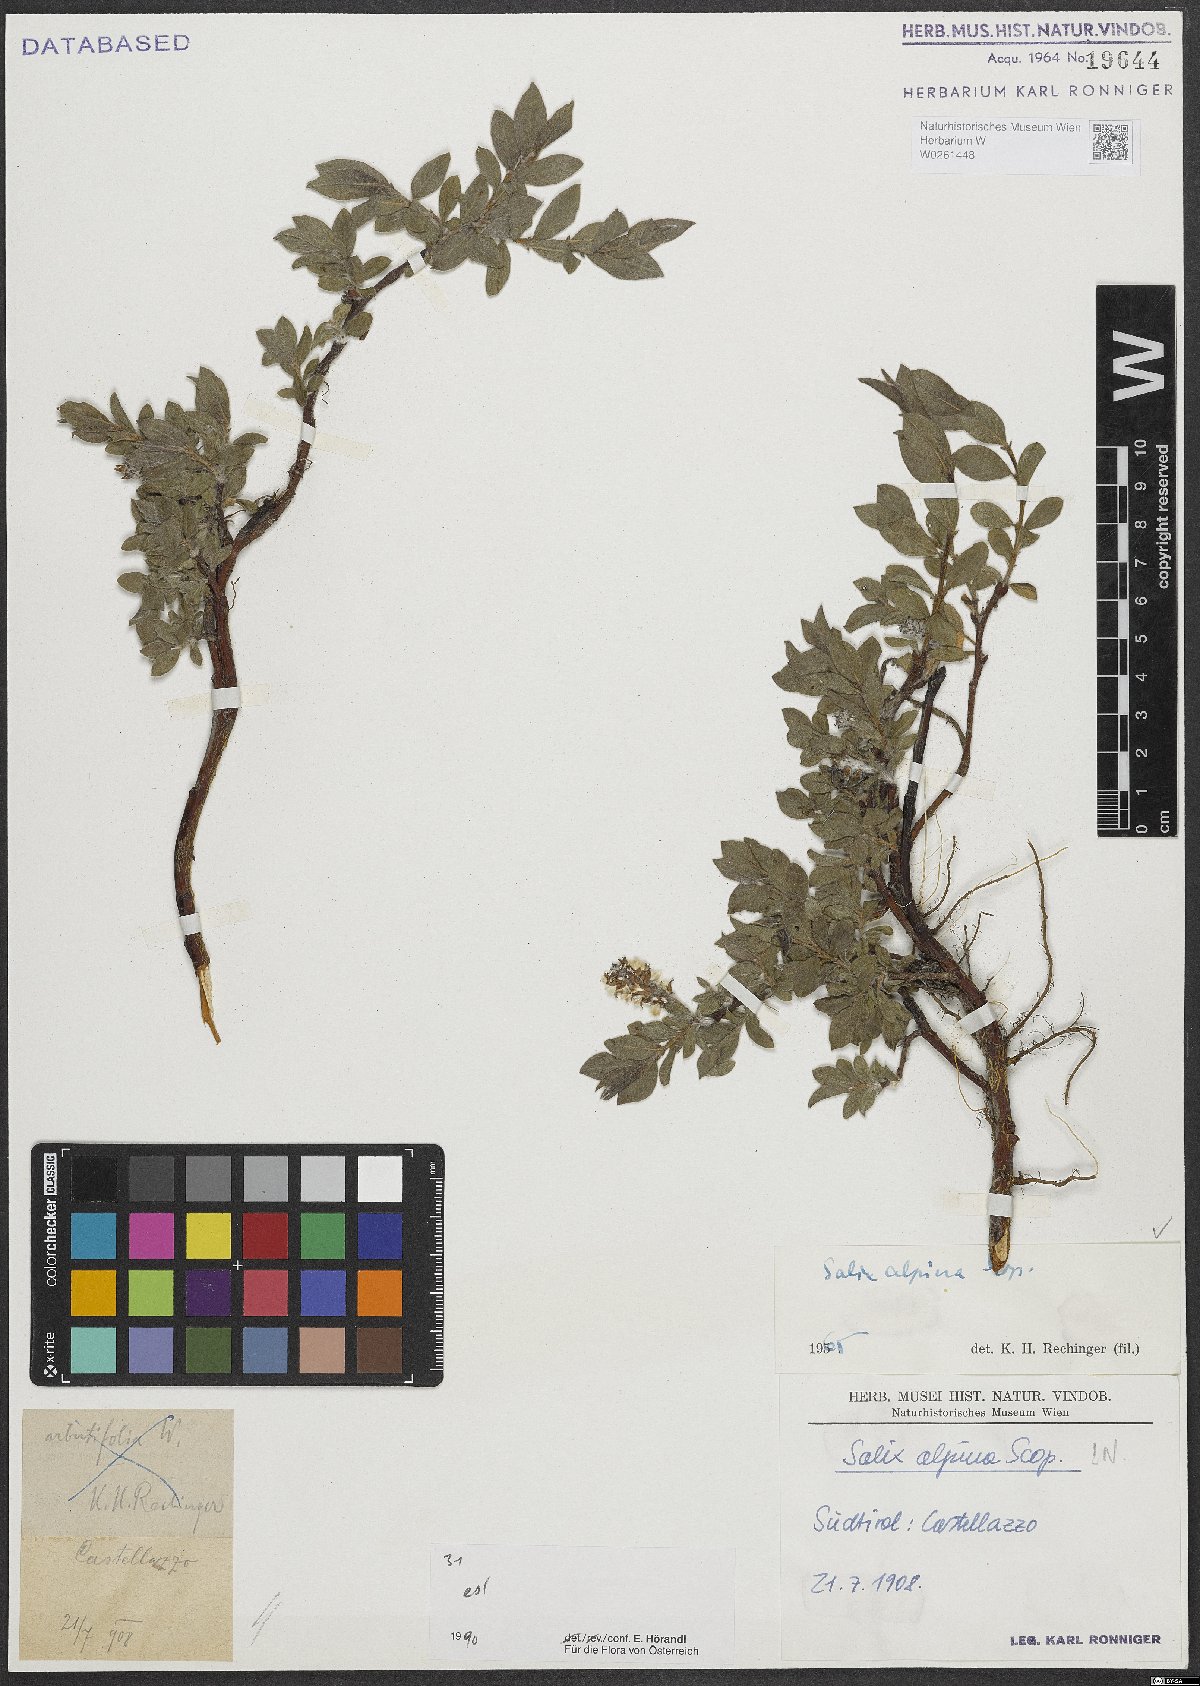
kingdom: Plantae
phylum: Tracheophyta
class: Magnoliopsida
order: Malpighiales
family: Salicaceae
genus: Salix
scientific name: Salix alpina
